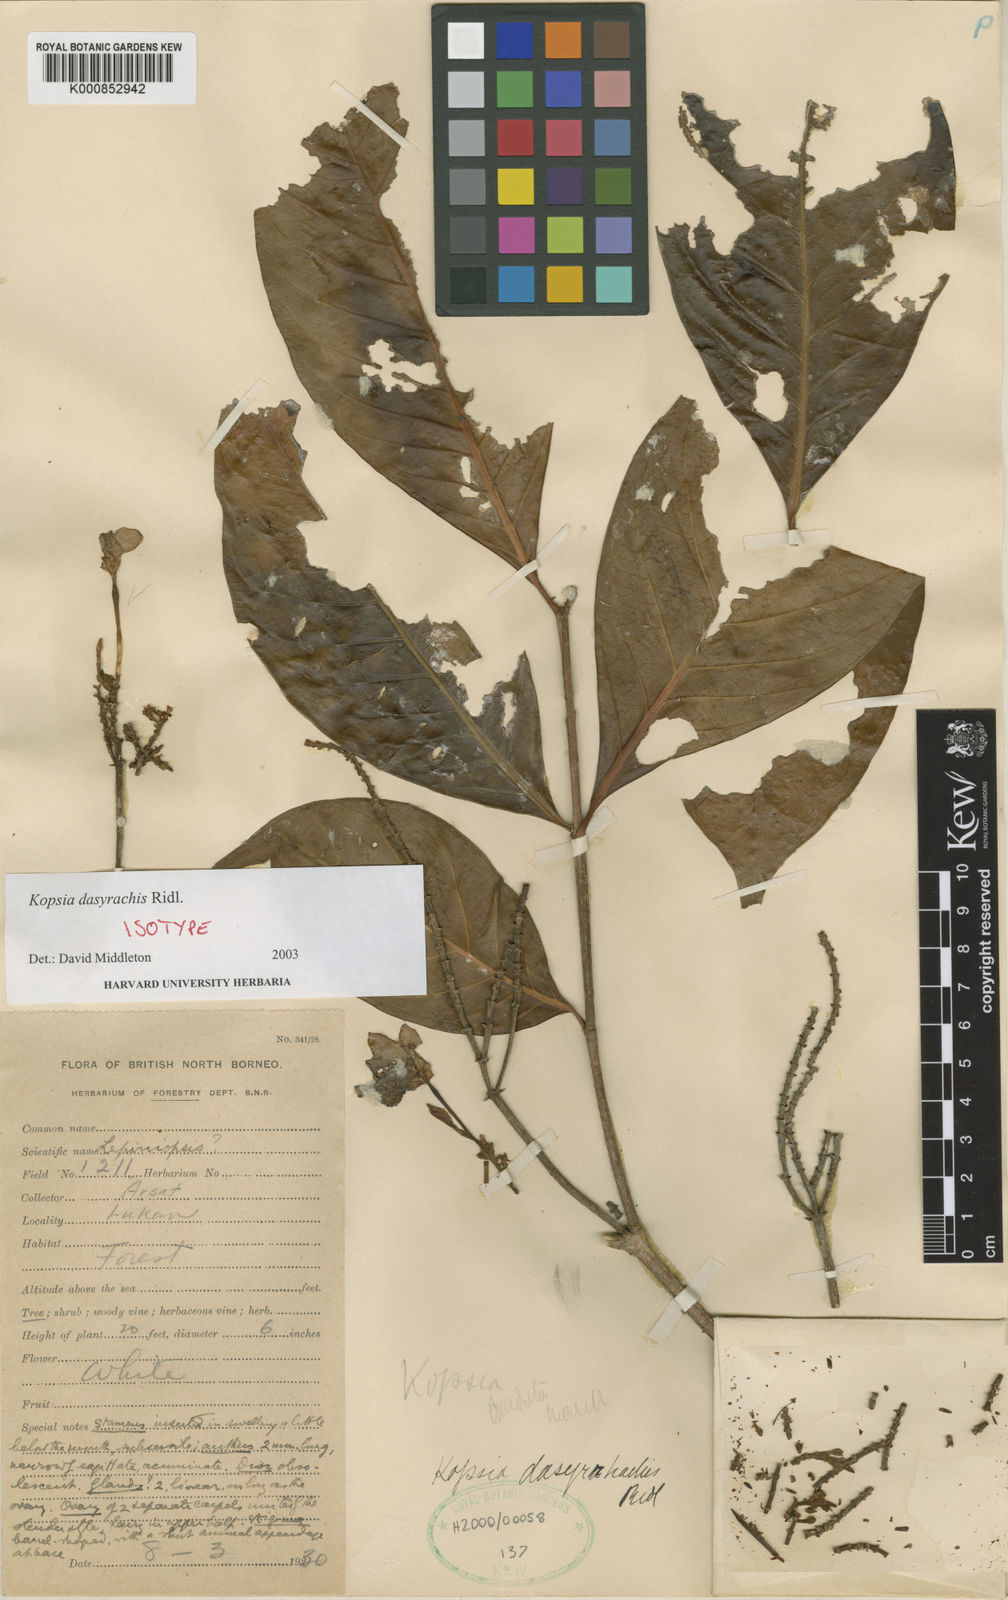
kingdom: Plantae
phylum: Tracheophyta
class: Magnoliopsida
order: Gentianales
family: Apocynaceae
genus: Kopsia
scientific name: Kopsia dasyrachis
